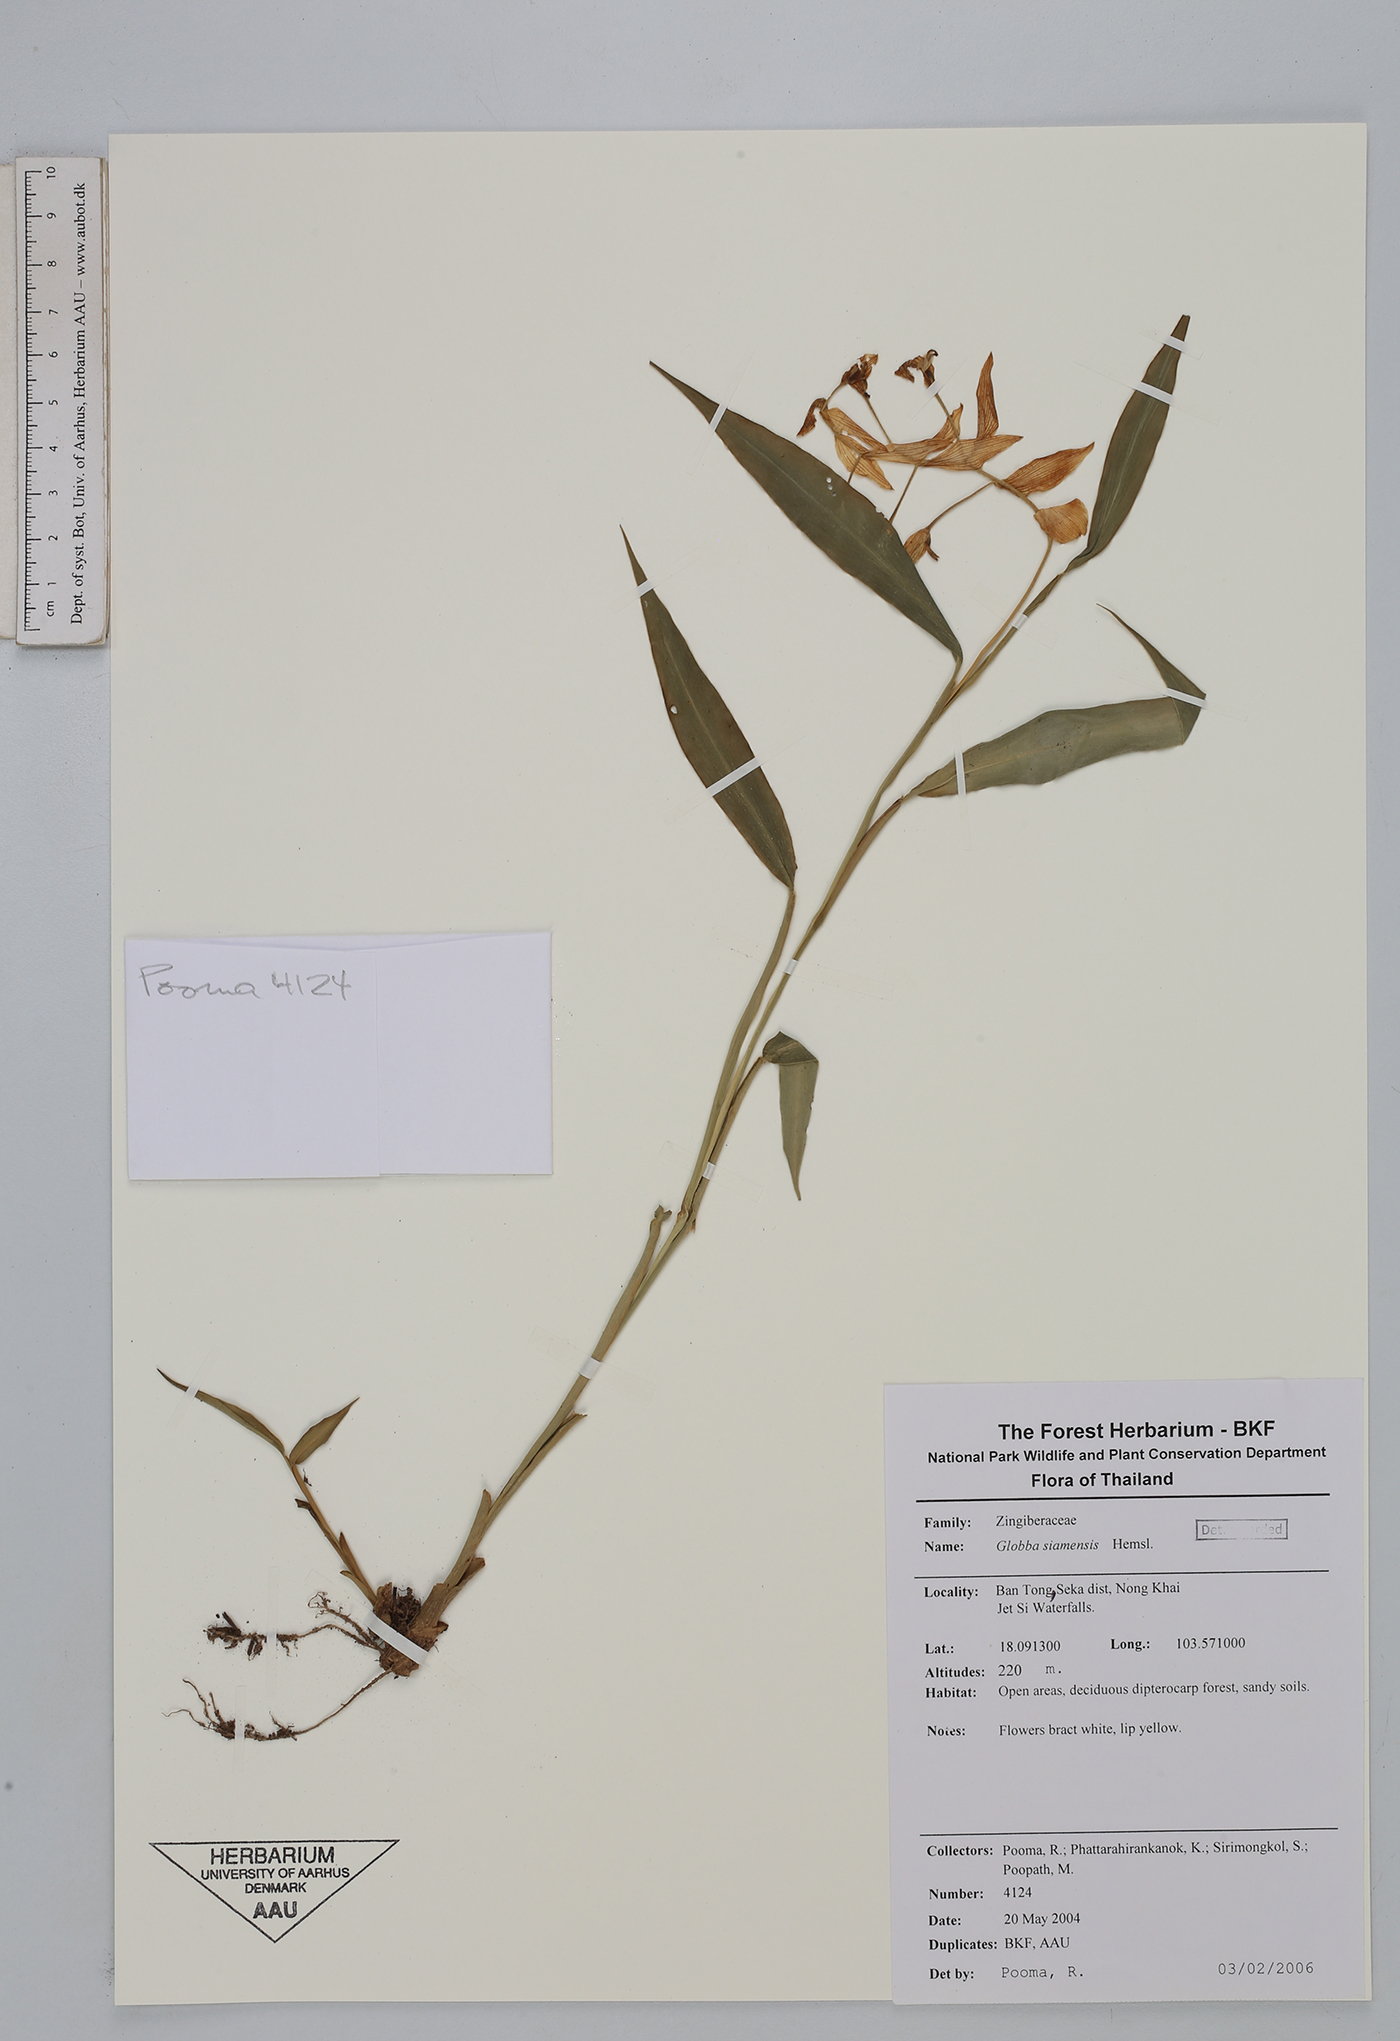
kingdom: Plantae
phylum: Tracheophyta
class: Liliopsida
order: Zingiberales
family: Zingiberaceae
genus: Globba
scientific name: Globba siamensis
